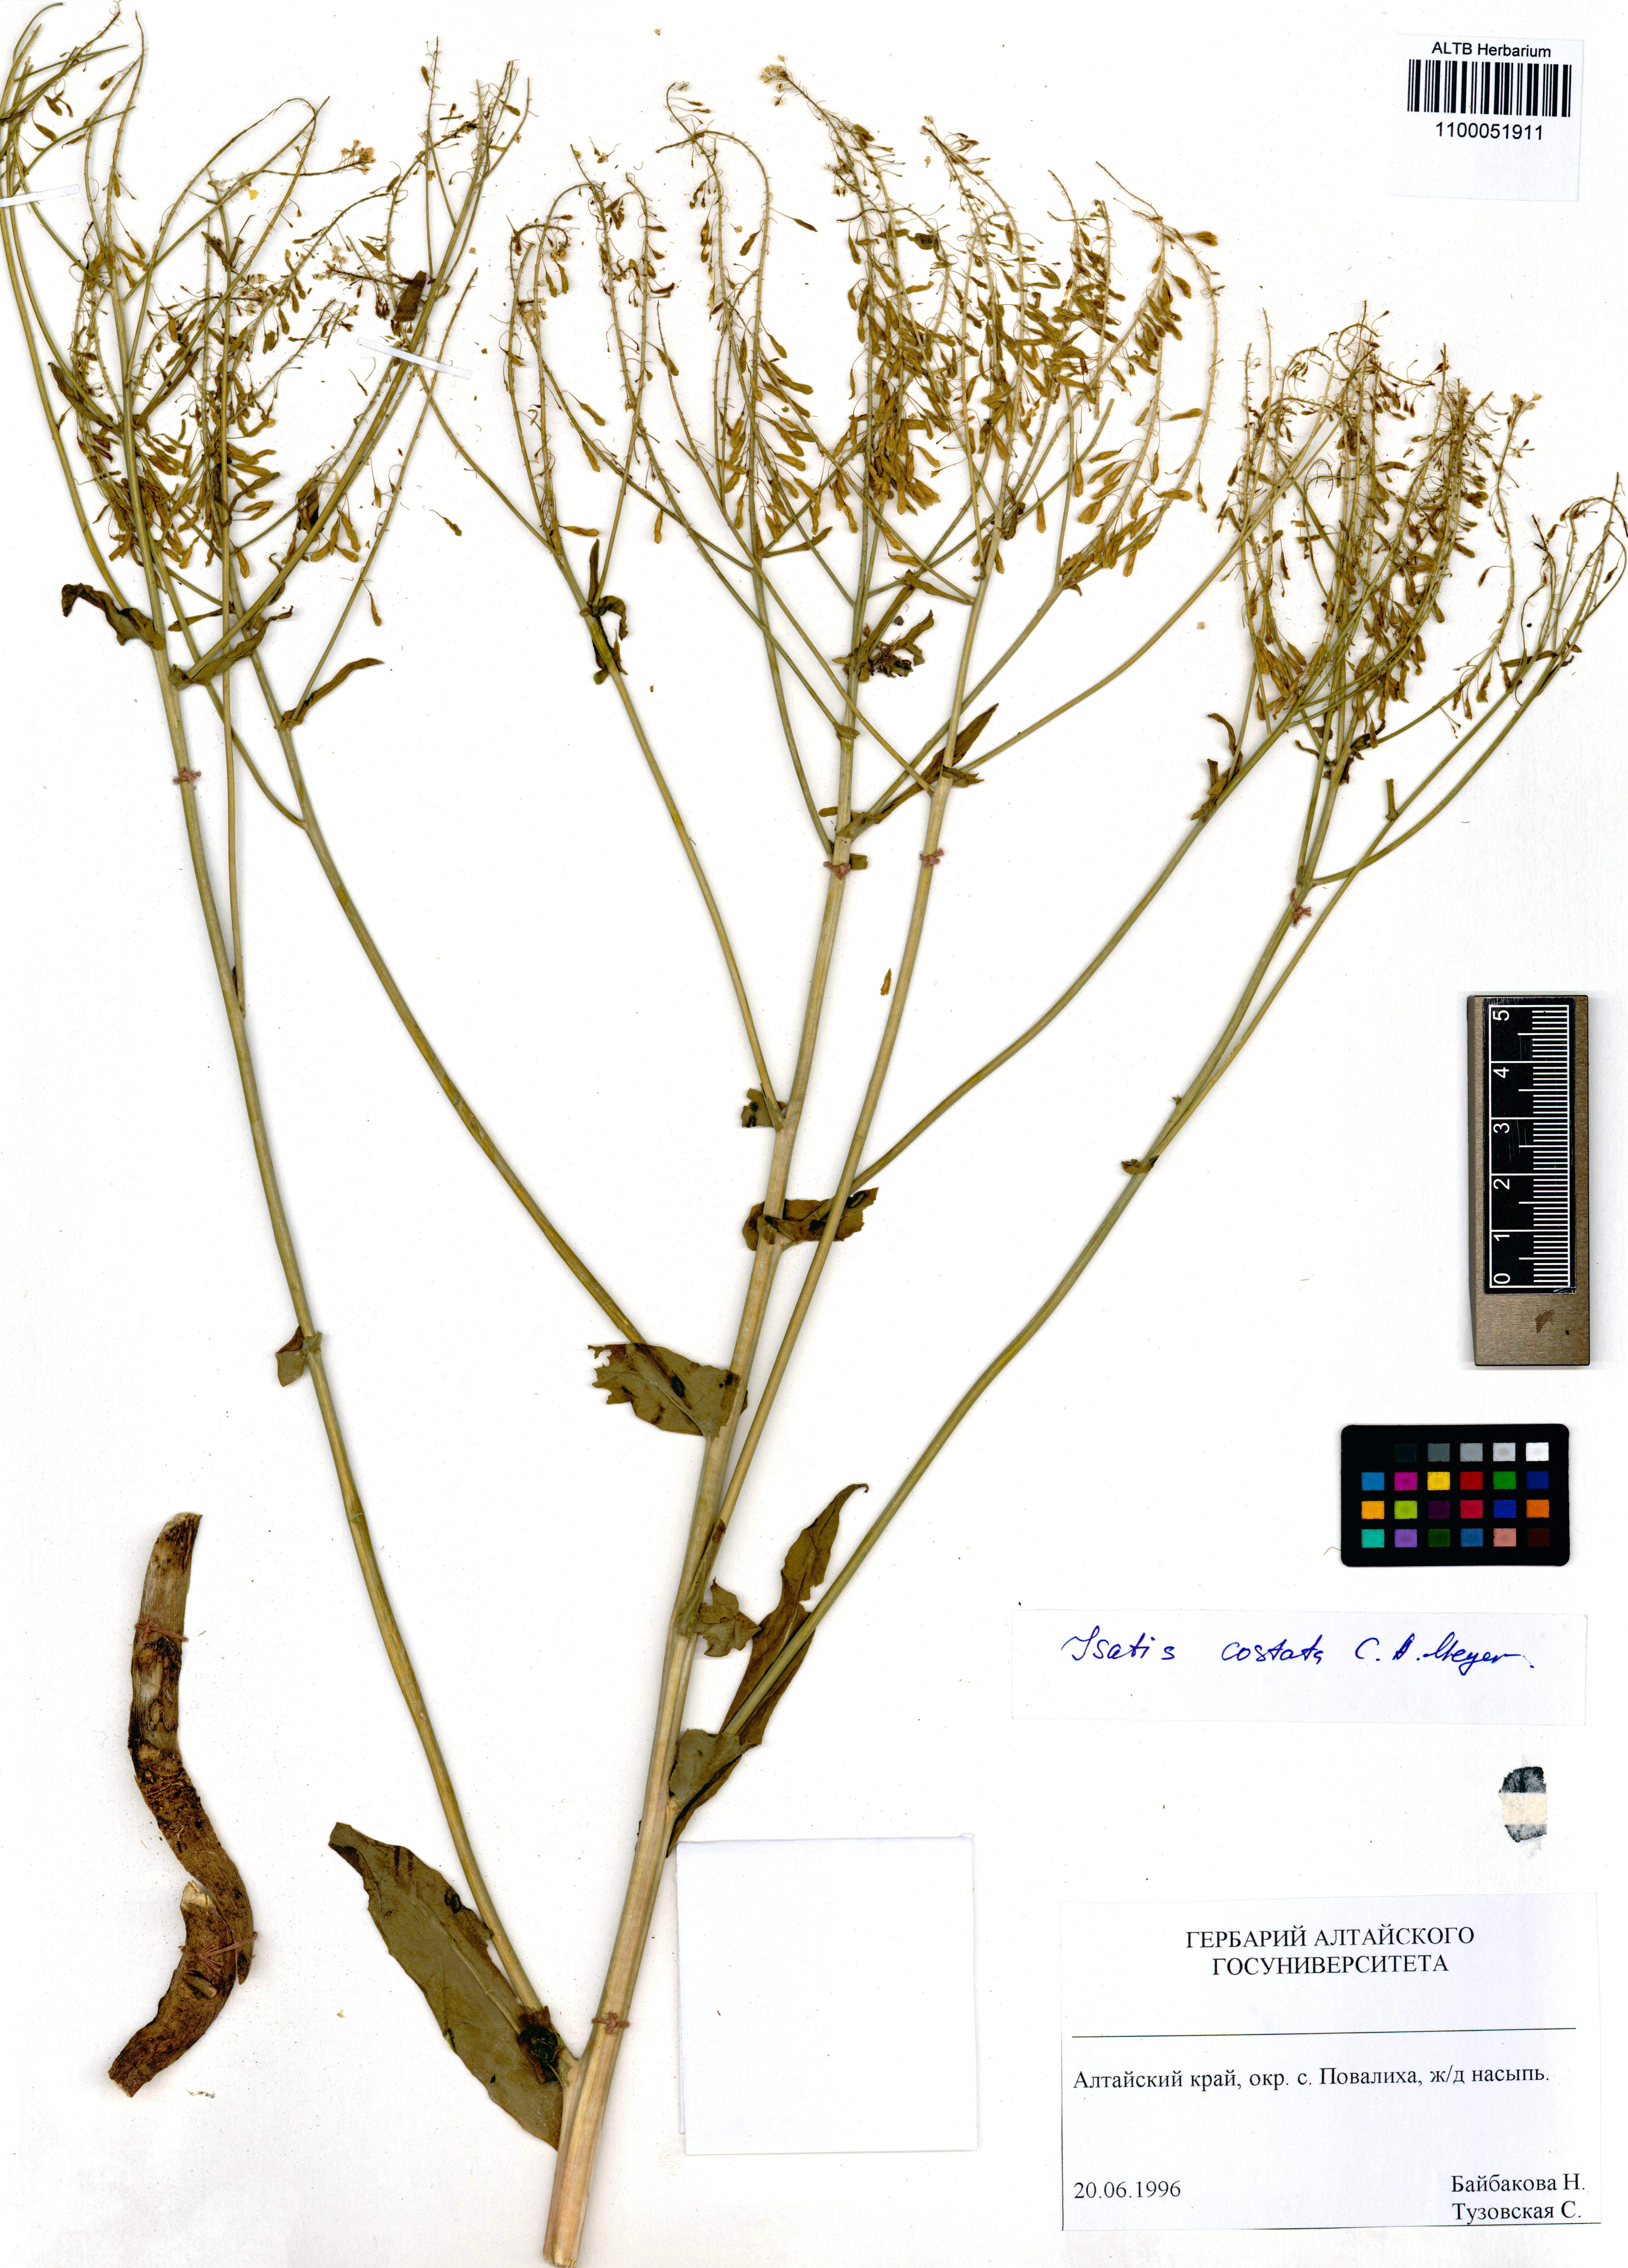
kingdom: Plantae
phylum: Tracheophyta
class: Magnoliopsida
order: Brassicales
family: Brassicaceae
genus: Isatis
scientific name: Isatis costata
